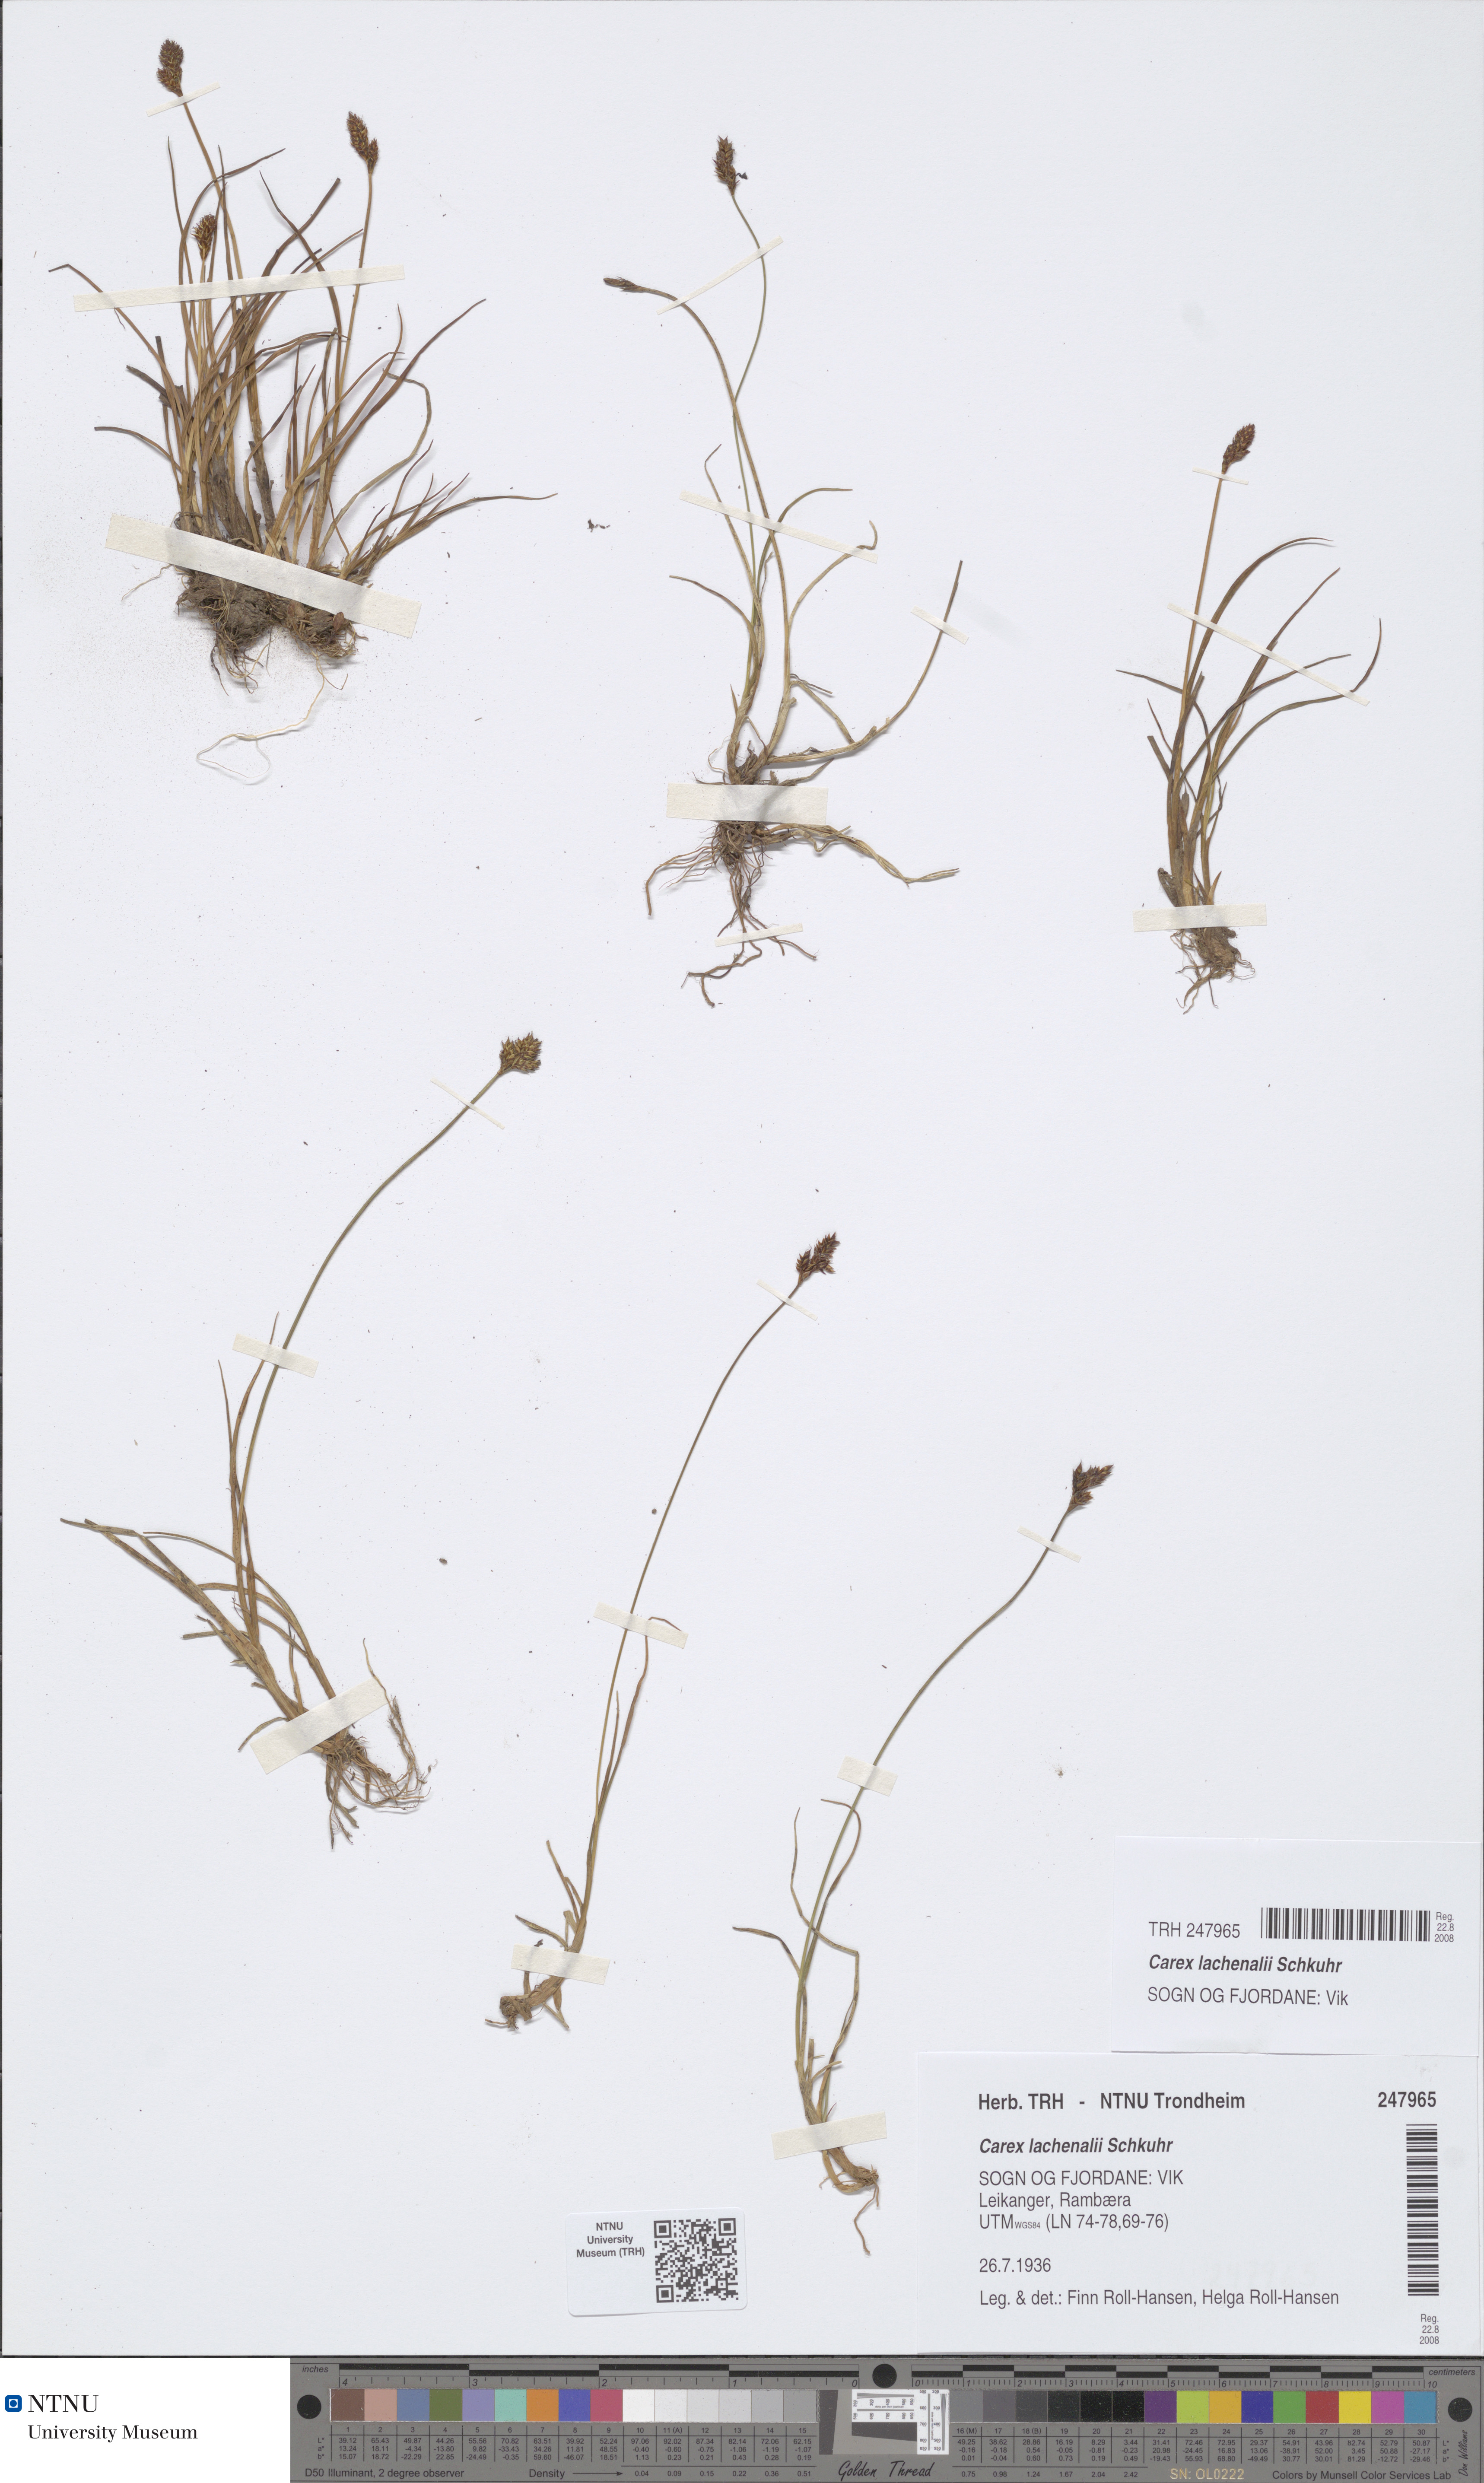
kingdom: Plantae
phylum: Tracheophyta
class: Liliopsida
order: Poales
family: Cyperaceae
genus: Carex
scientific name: Carex lachenalii
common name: Hare's-foot sedge
